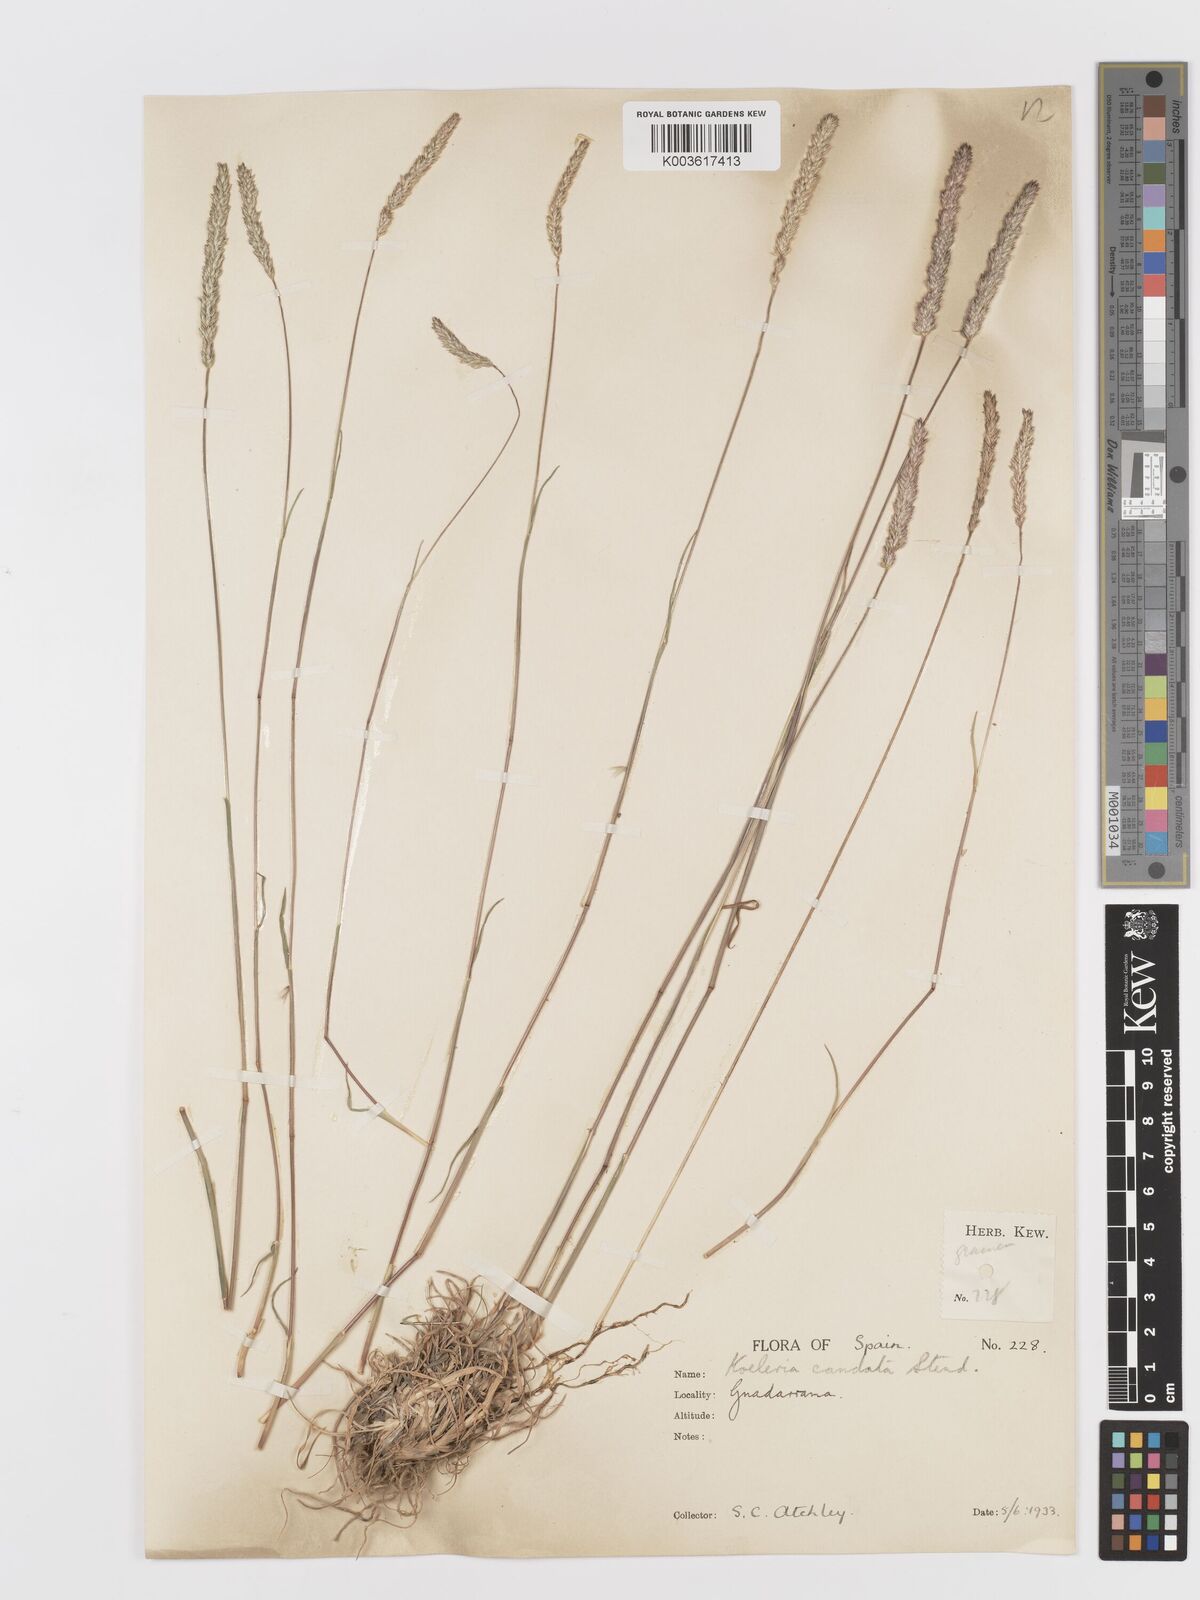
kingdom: Plantae
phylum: Tracheophyta
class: Liliopsida
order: Poales
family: Poaceae
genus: Koeleria
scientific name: Koeleria crassipes
